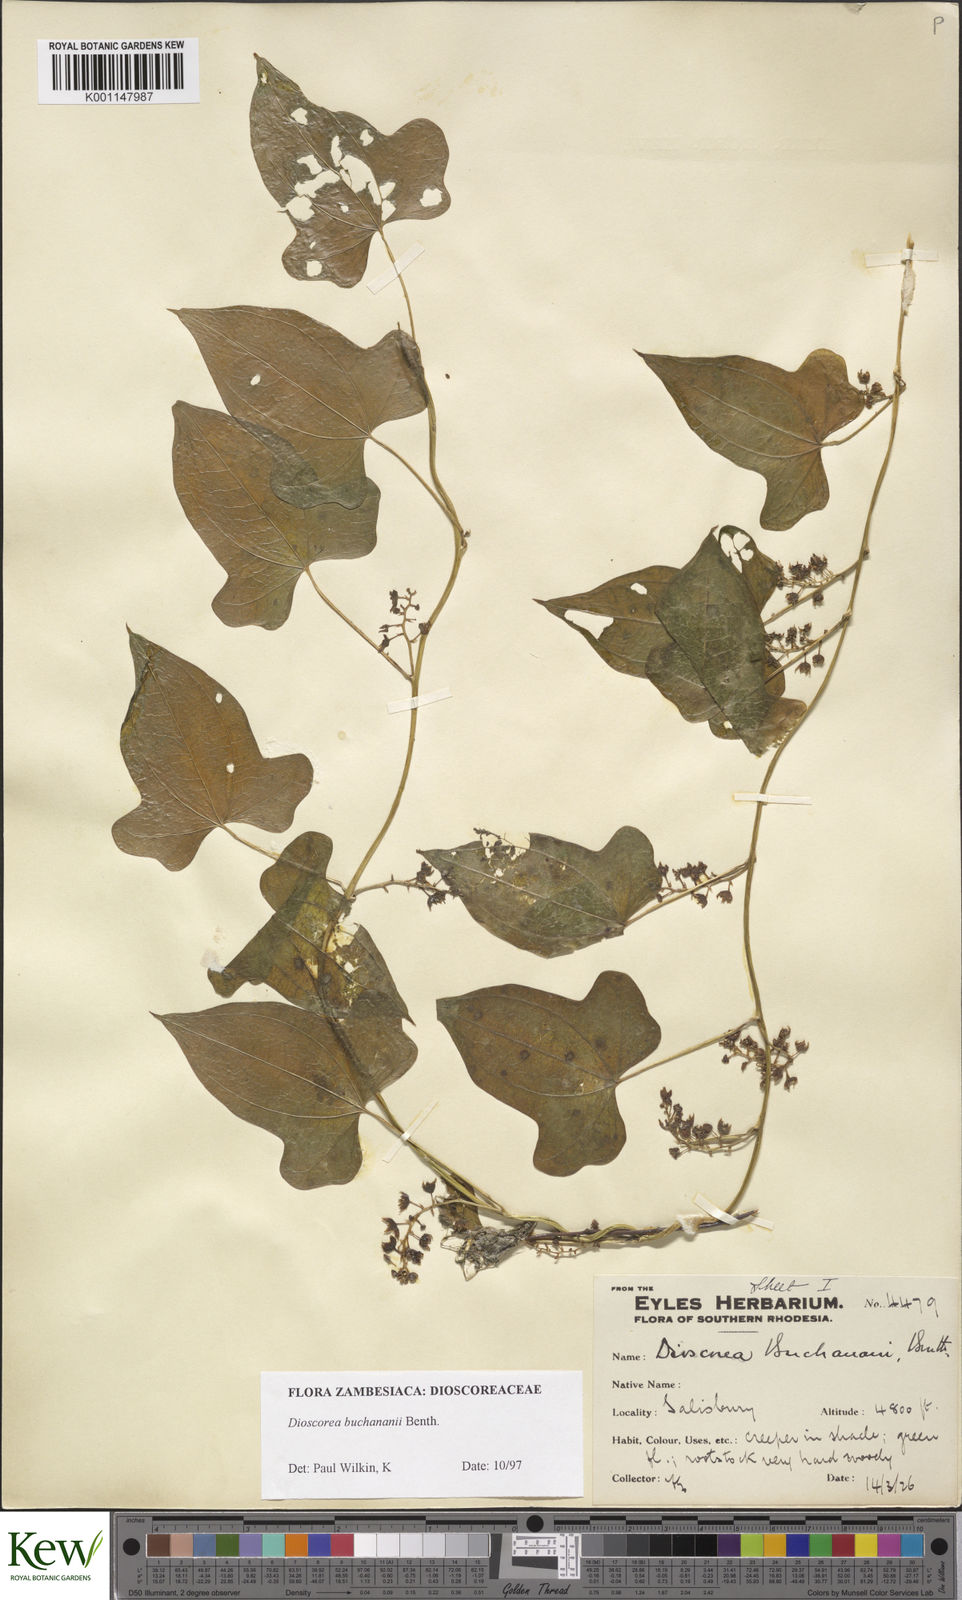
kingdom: Plantae
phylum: Tracheophyta
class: Liliopsida
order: Dioscoreales
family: Dioscoreaceae
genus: Dioscorea
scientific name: Dioscorea buchananii
